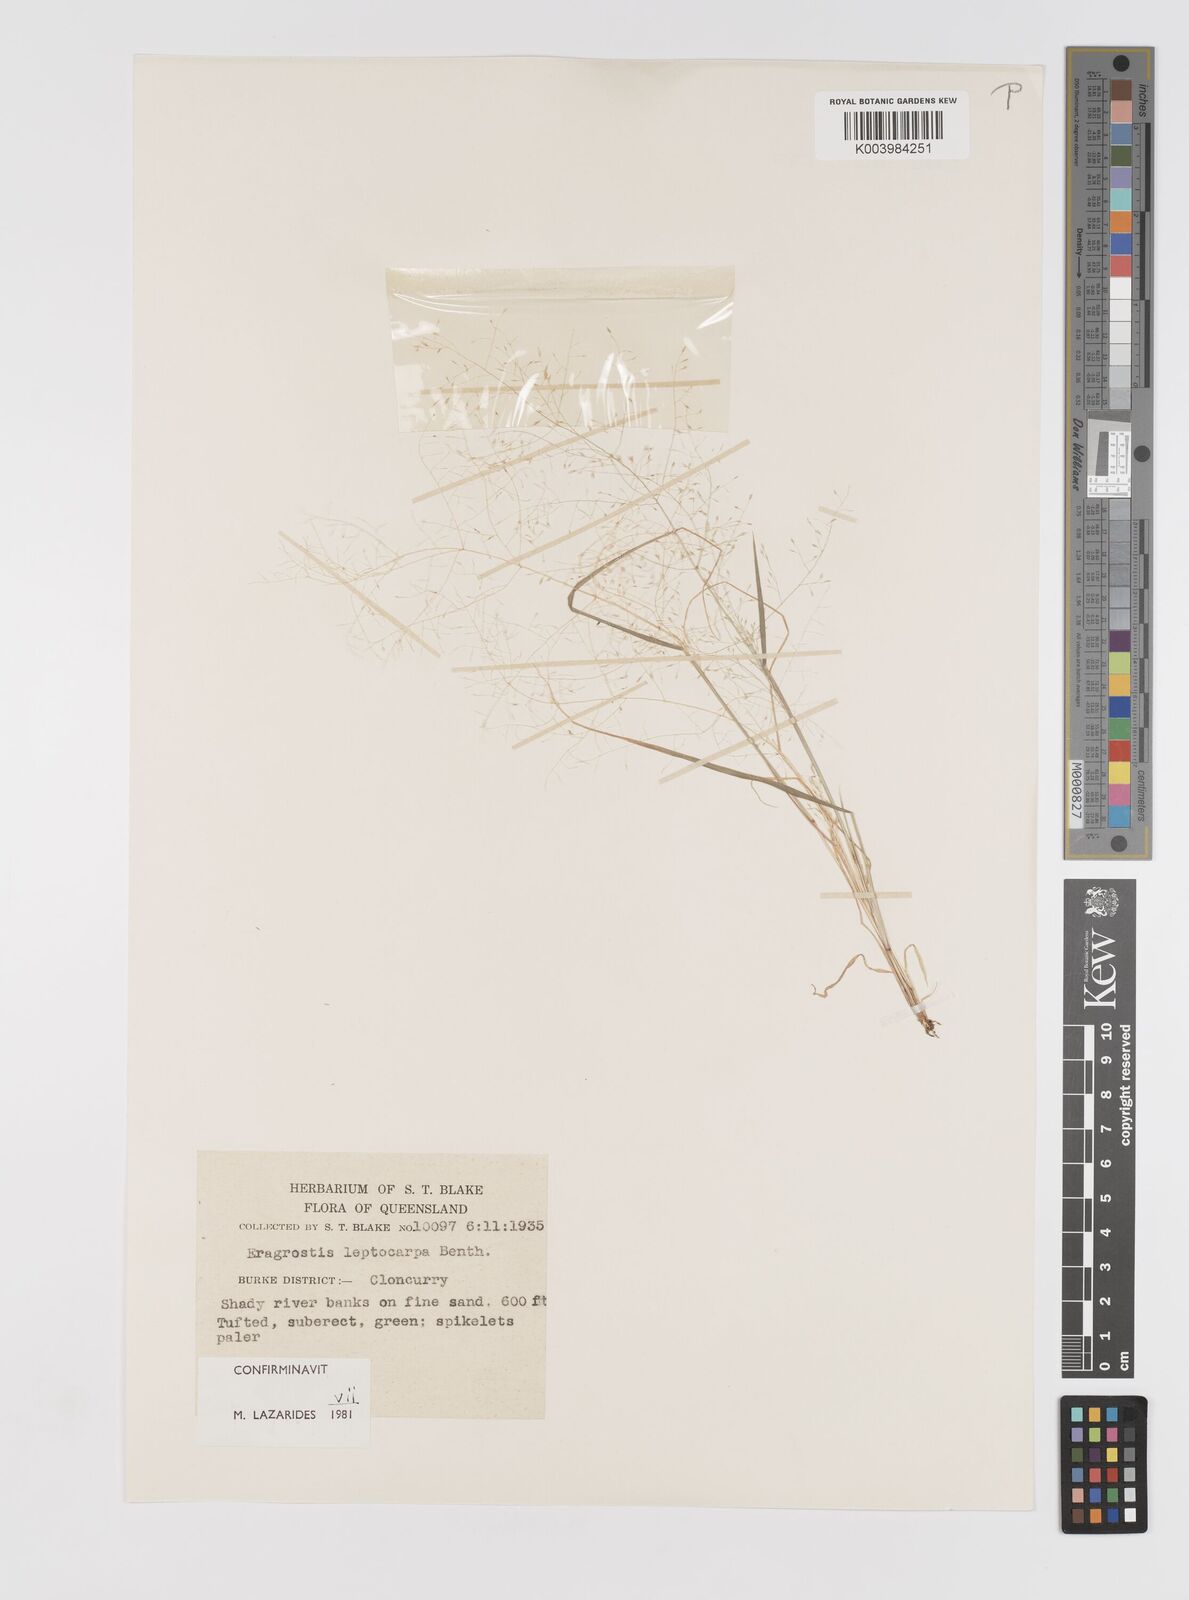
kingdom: Plantae
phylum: Tracheophyta
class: Liliopsida
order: Poales
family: Poaceae
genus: Eragrostis
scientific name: Eragrostis leptocarpa
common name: Drooping love grass
